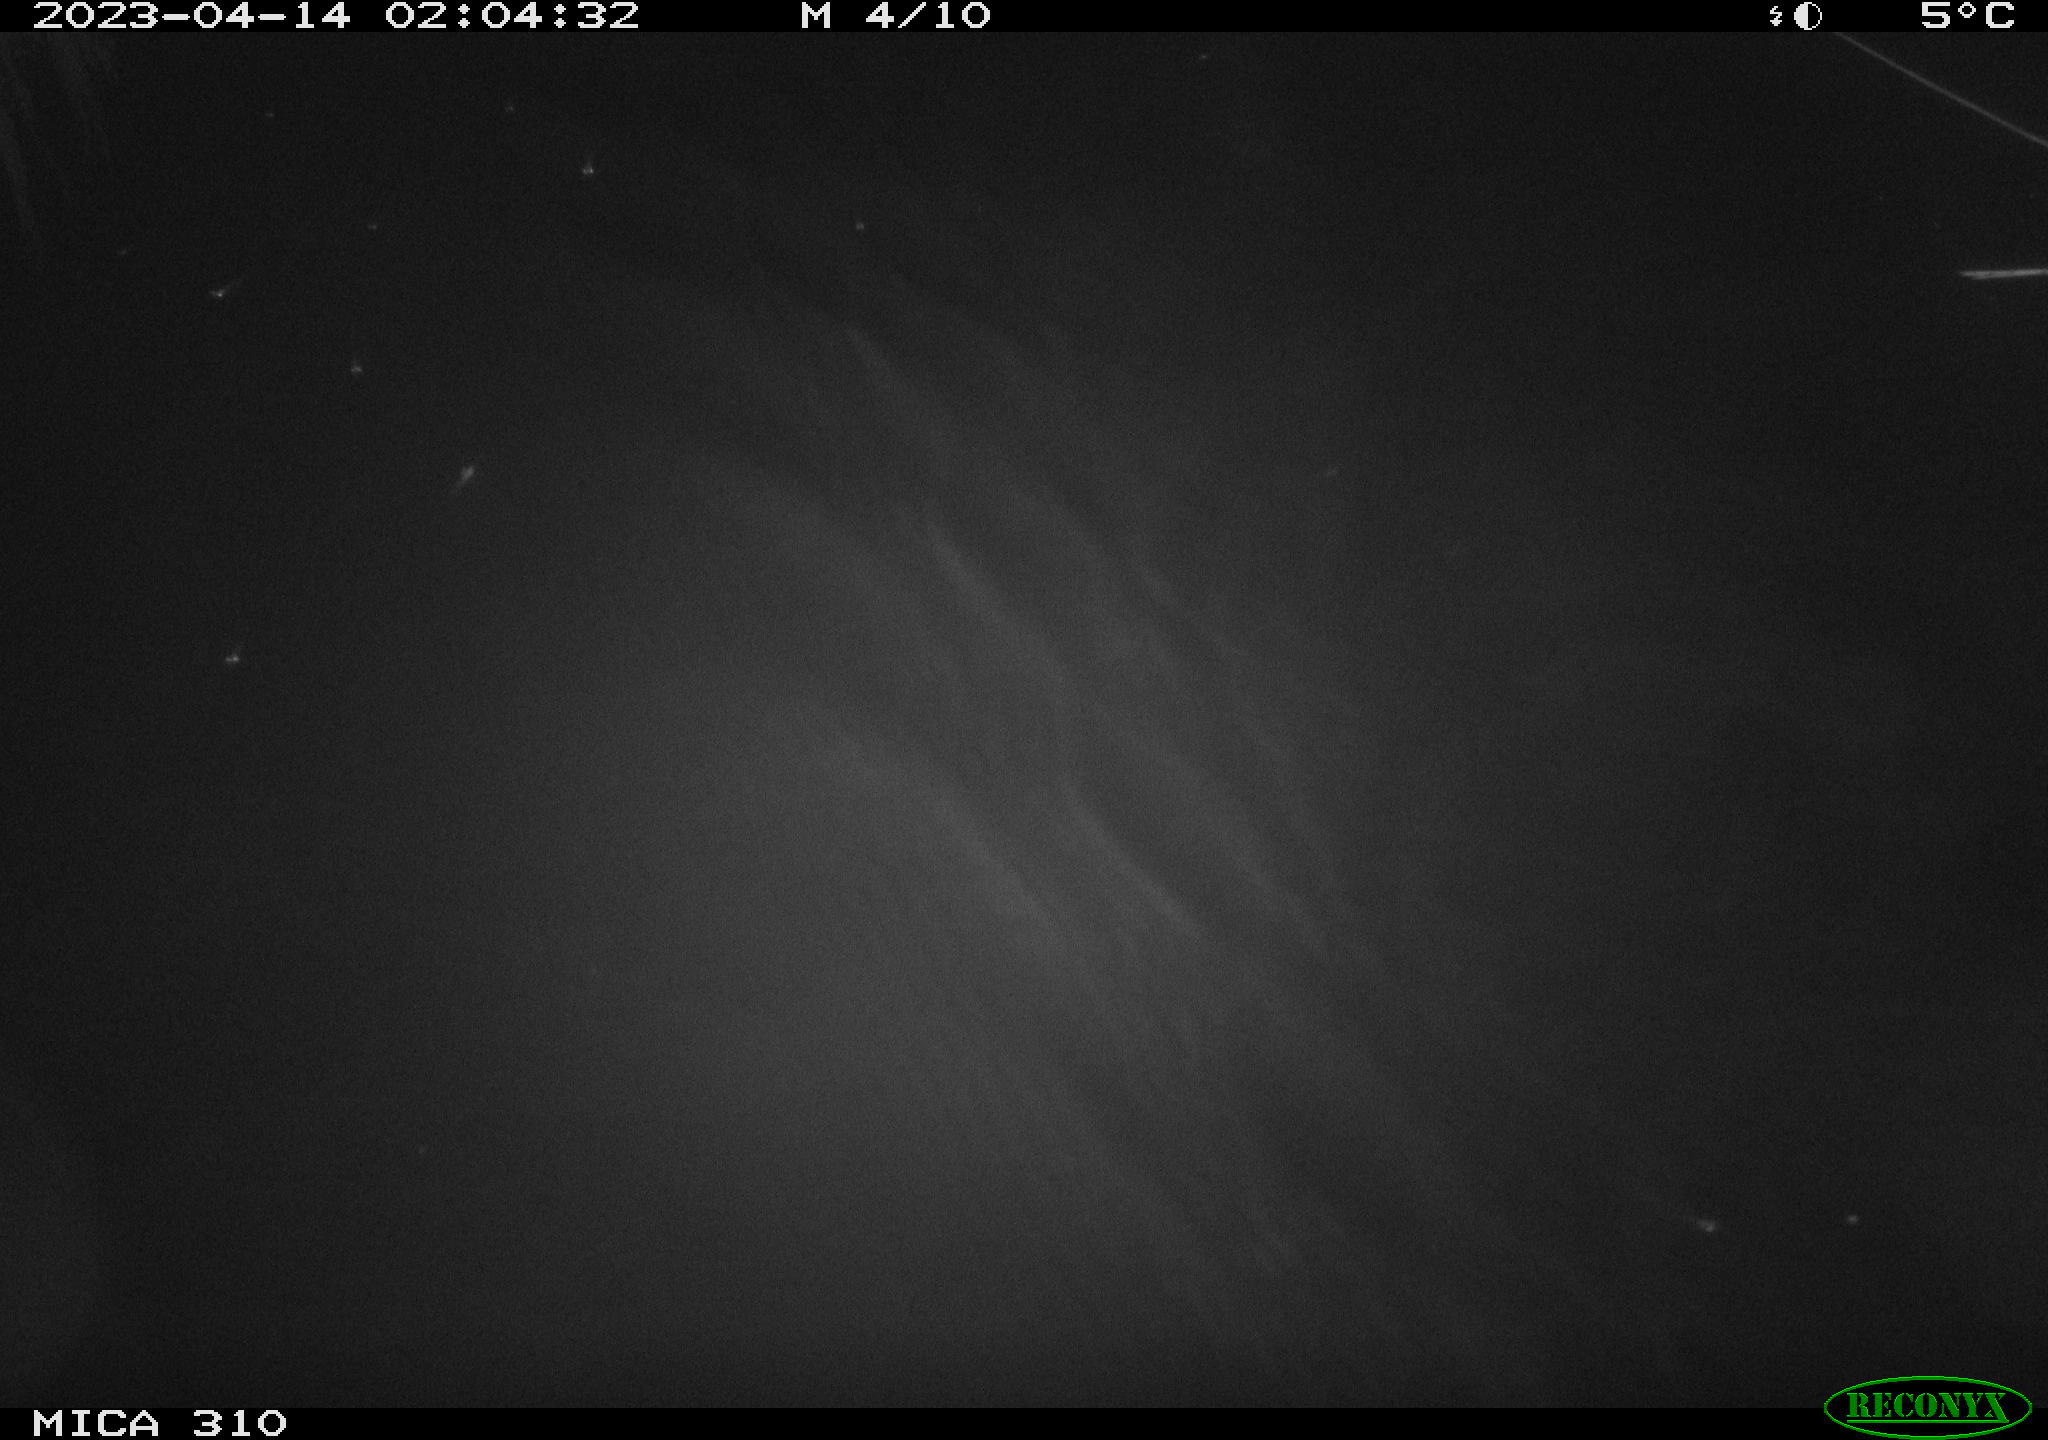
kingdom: Animalia
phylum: Chordata
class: Mammalia
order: Rodentia
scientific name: Rodentia
